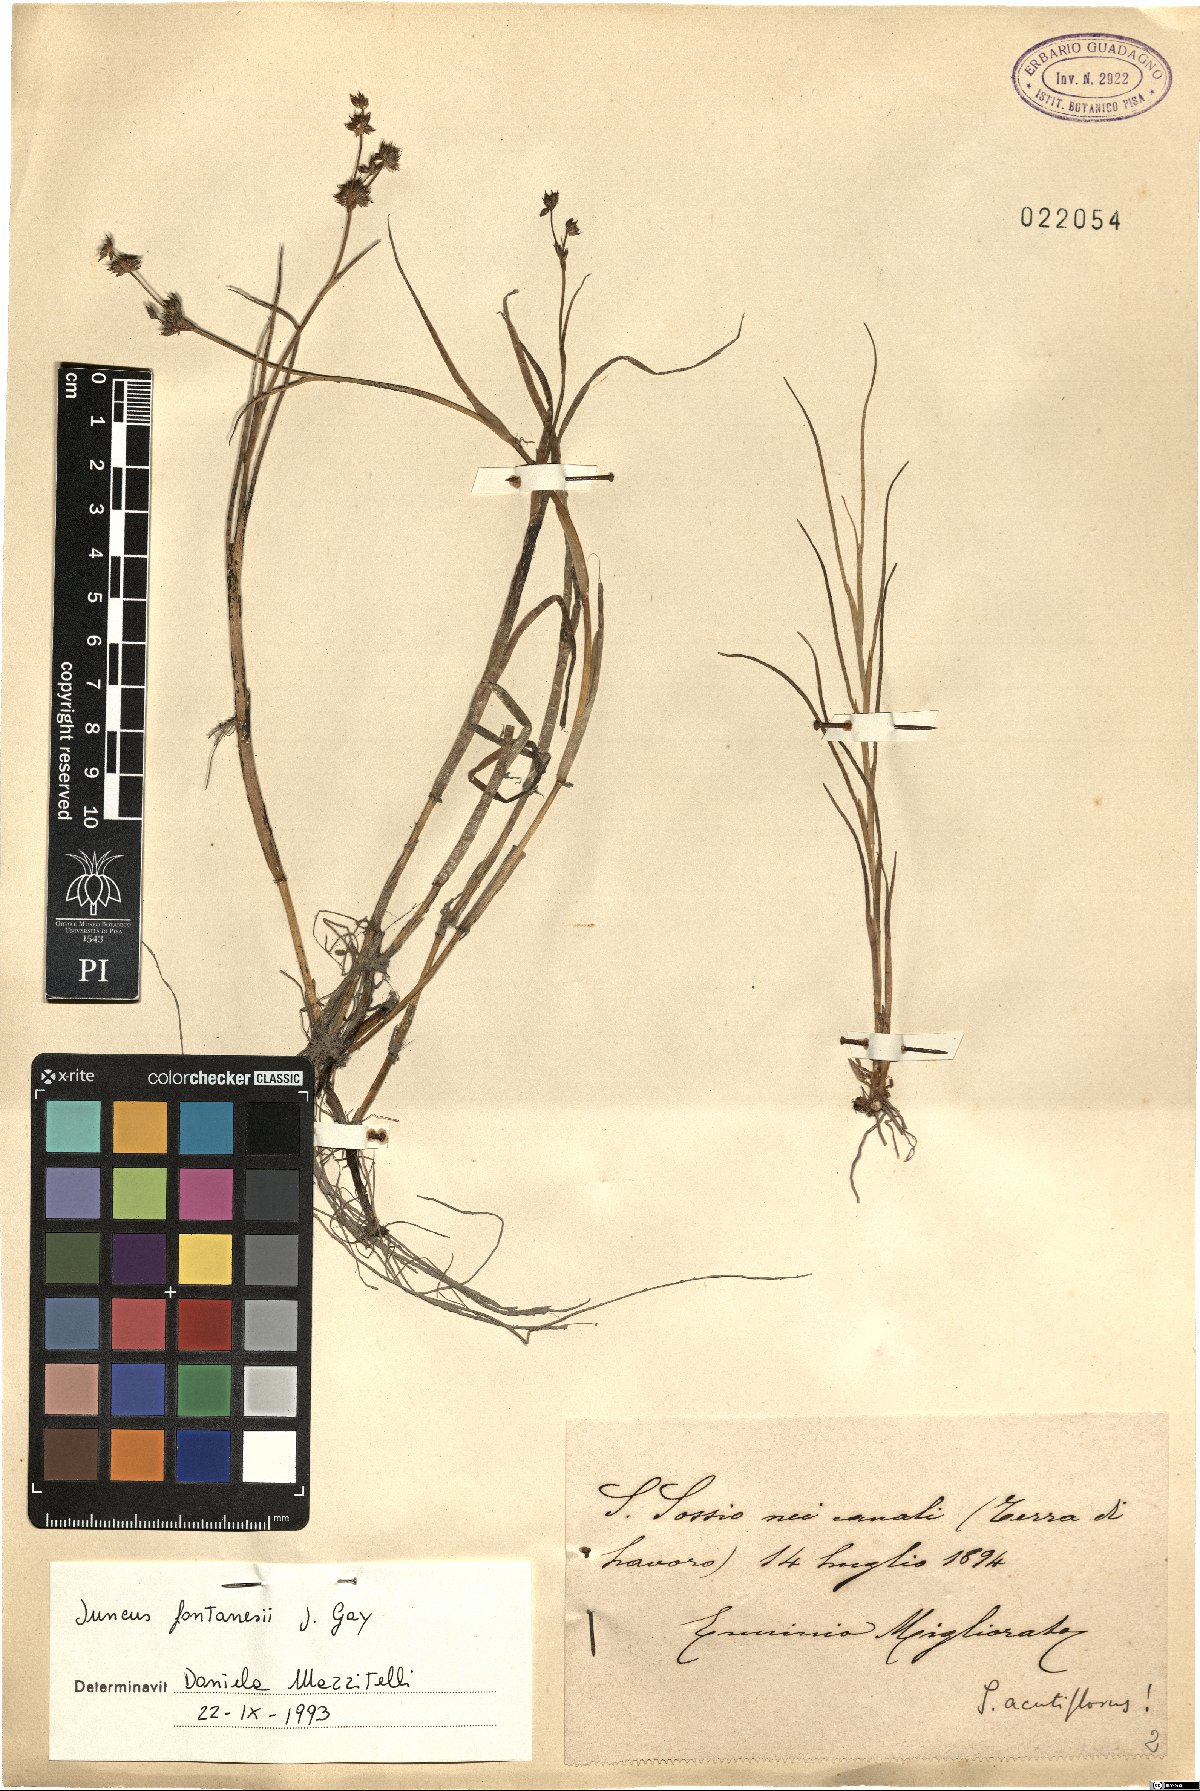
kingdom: Plantae
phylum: Tracheophyta
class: Liliopsida
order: Poales
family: Juncaceae
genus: Juncus
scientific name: Juncus fontanesii
